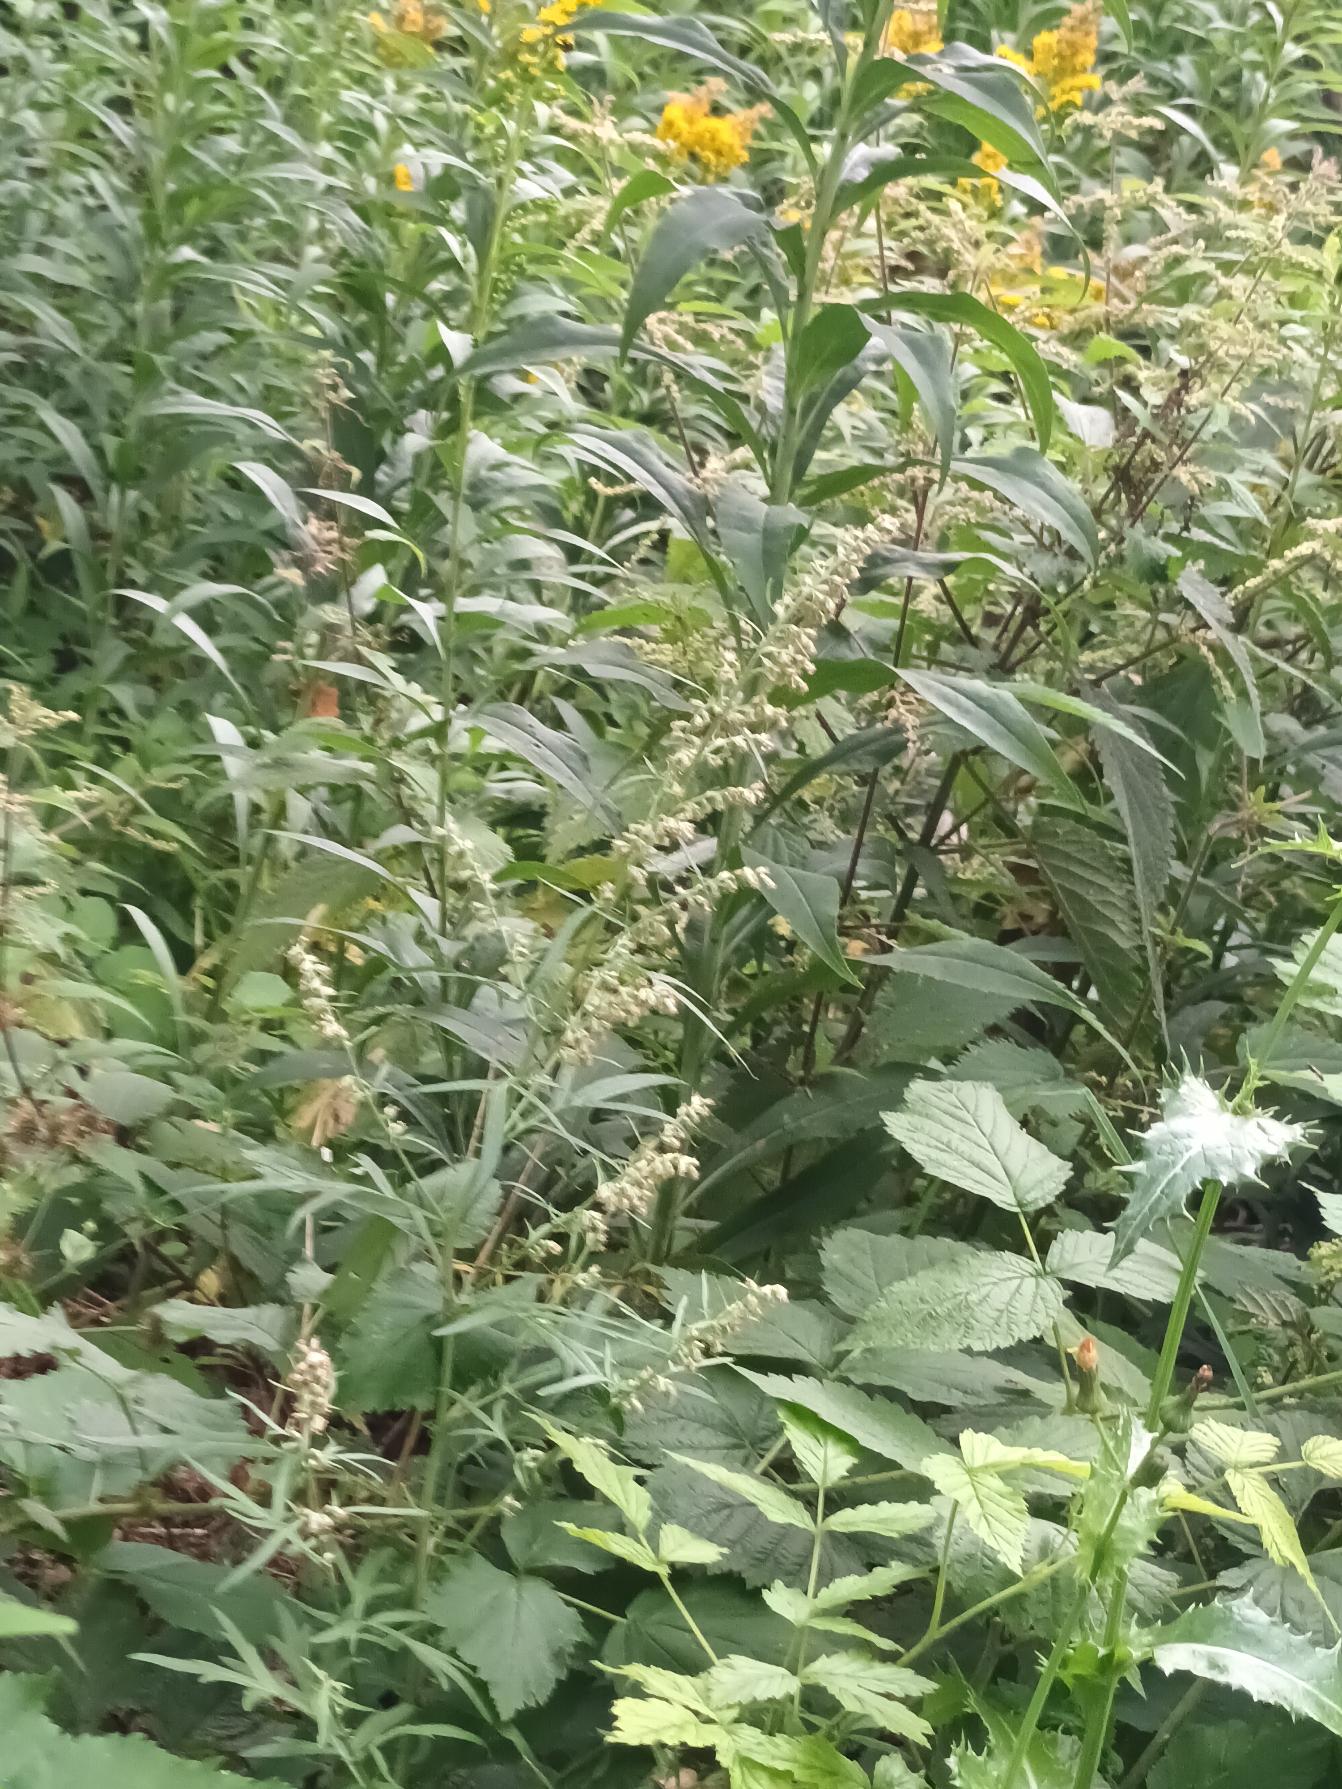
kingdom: Plantae
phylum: Tracheophyta
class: Magnoliopsida
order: Asterales
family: Asteraceae
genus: Artemisia
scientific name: Artemisia vulgaris
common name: Grå-bynke
